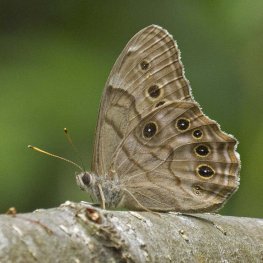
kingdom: Animalia
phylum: Arthropoda
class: Insecta
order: Lepidoptera
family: Nymphalidae
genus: Lethe
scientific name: Lethe anthedon
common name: Northern Pearly-Eye
